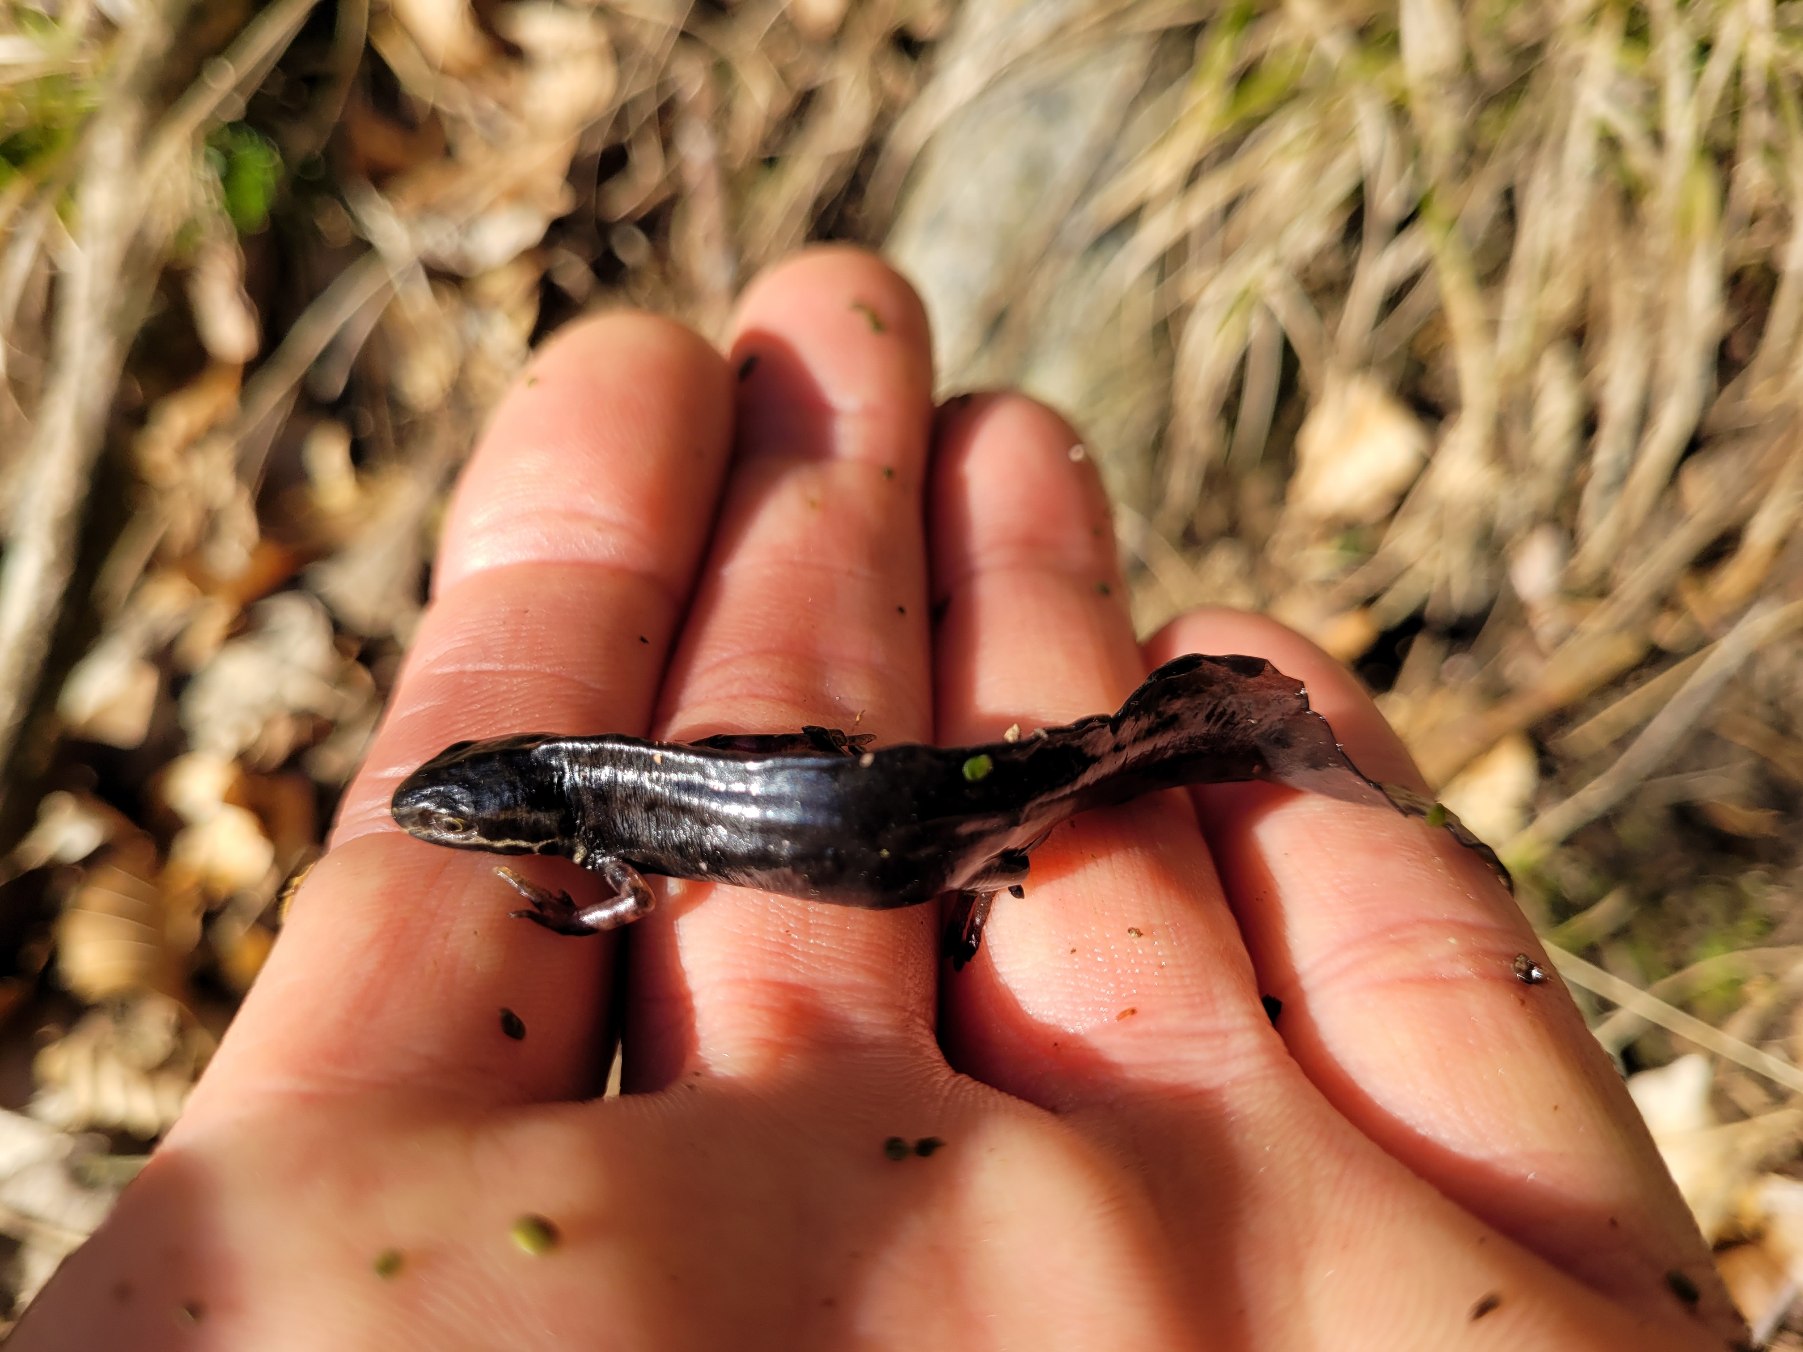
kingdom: Animalia
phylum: Chordata
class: Amphibia
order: Caudata
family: Salamandridae
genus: Lissotriton
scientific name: Lissotriton vulgaris
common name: Lille vandsalamander
